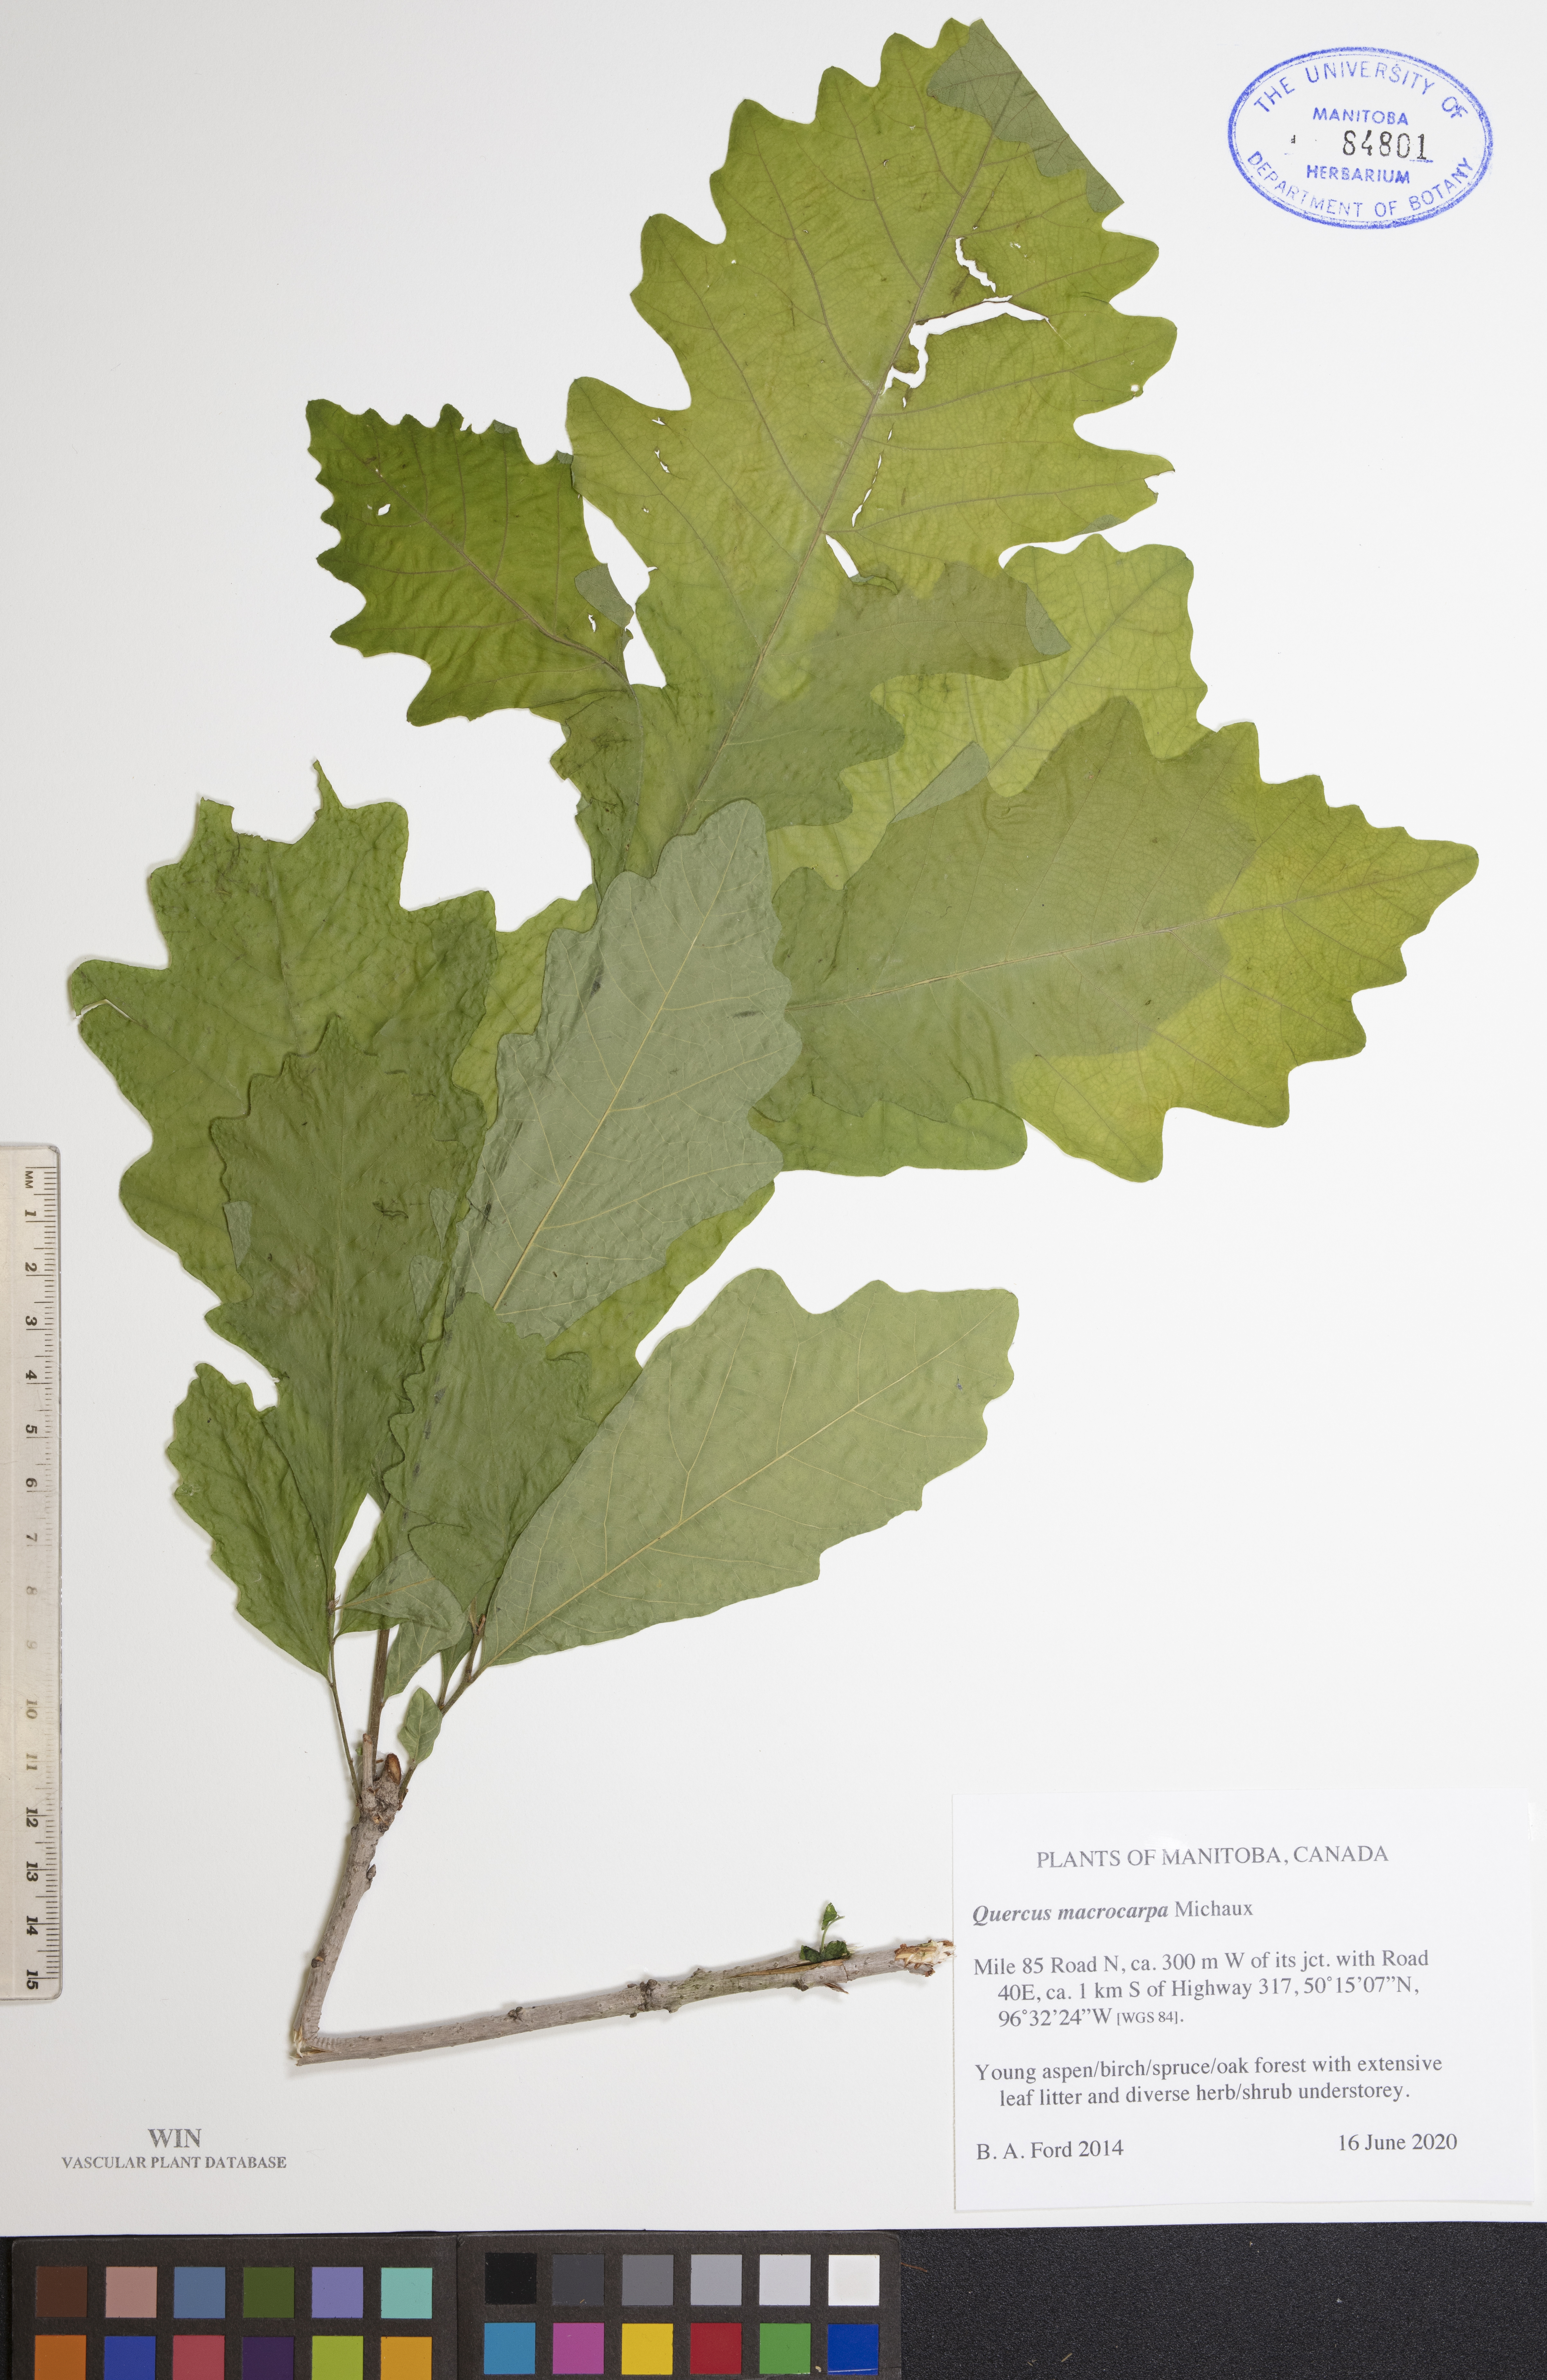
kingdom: Plantae
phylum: Tracheophyta
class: Magnoliopsida
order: Fagales
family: Fagaceae
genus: Quercus
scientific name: Quercus macrocarpa
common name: Bur oak
